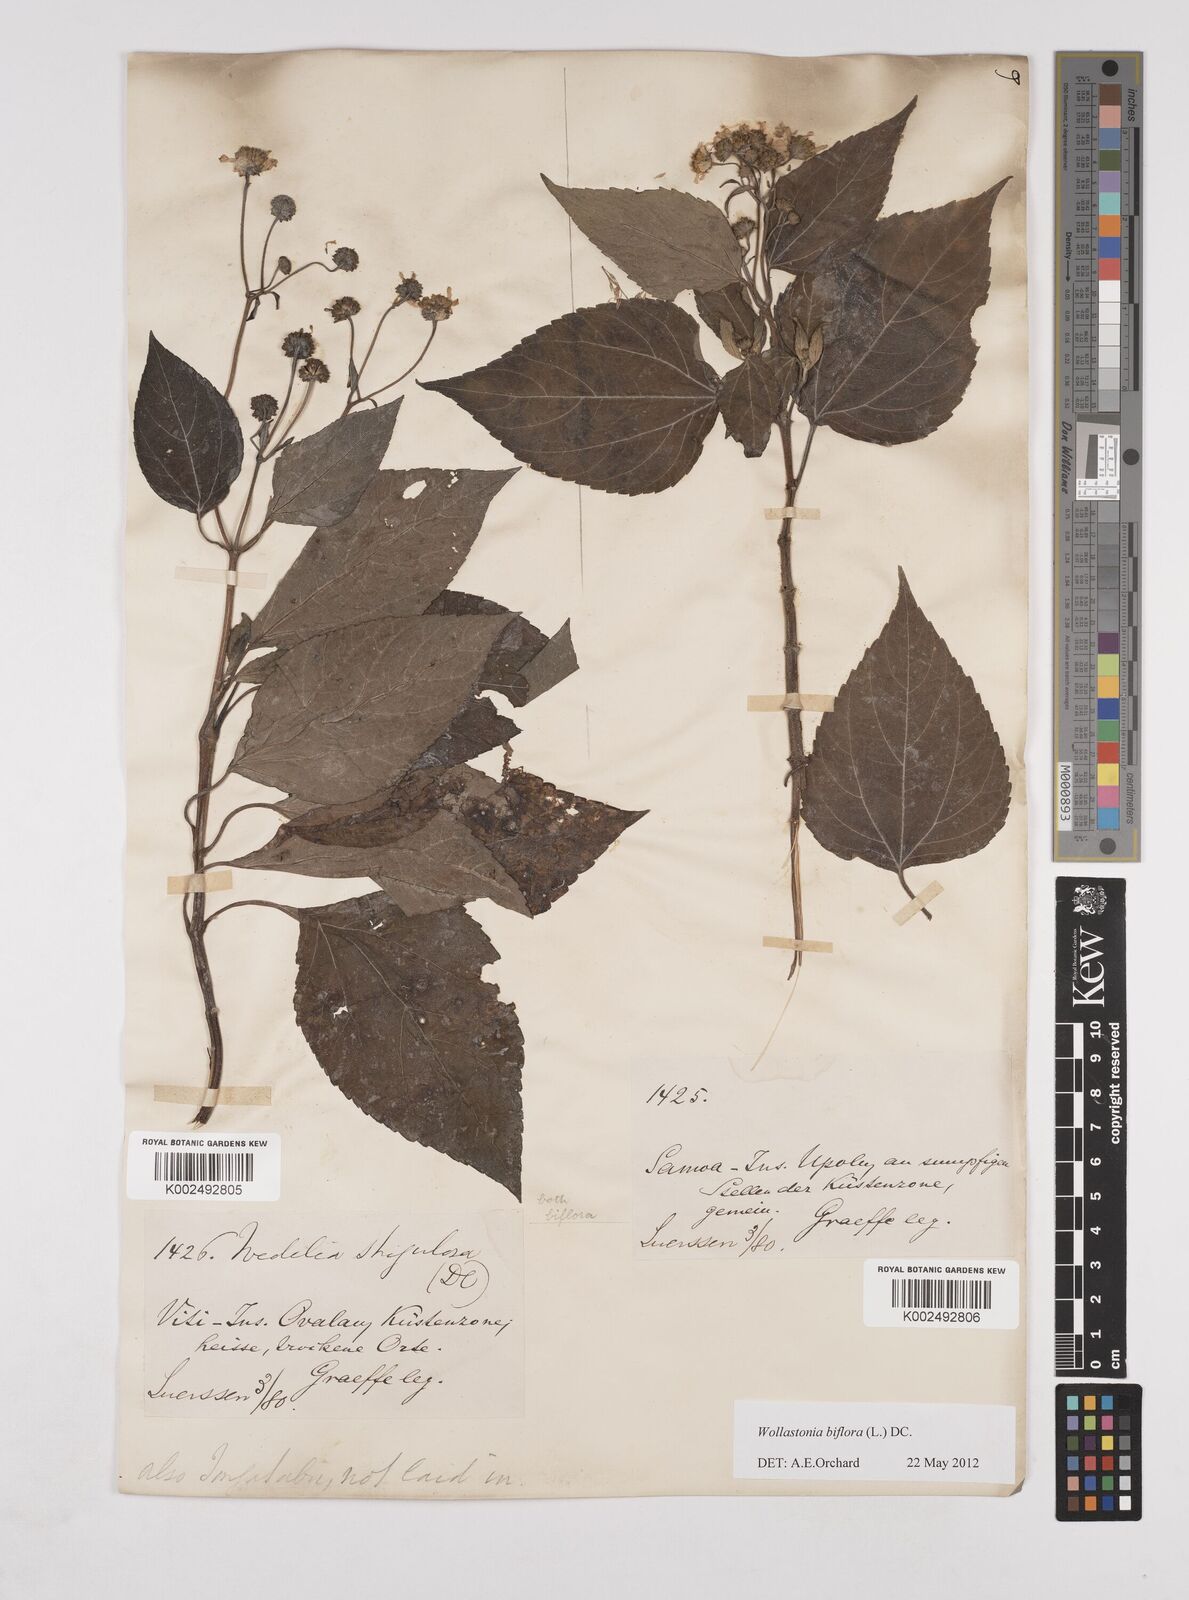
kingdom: Plantae
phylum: Tracheophyta
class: Magnoliopsida
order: Asterales
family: Asteraceae
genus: Wollastonia
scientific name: Wollastonia biflora
